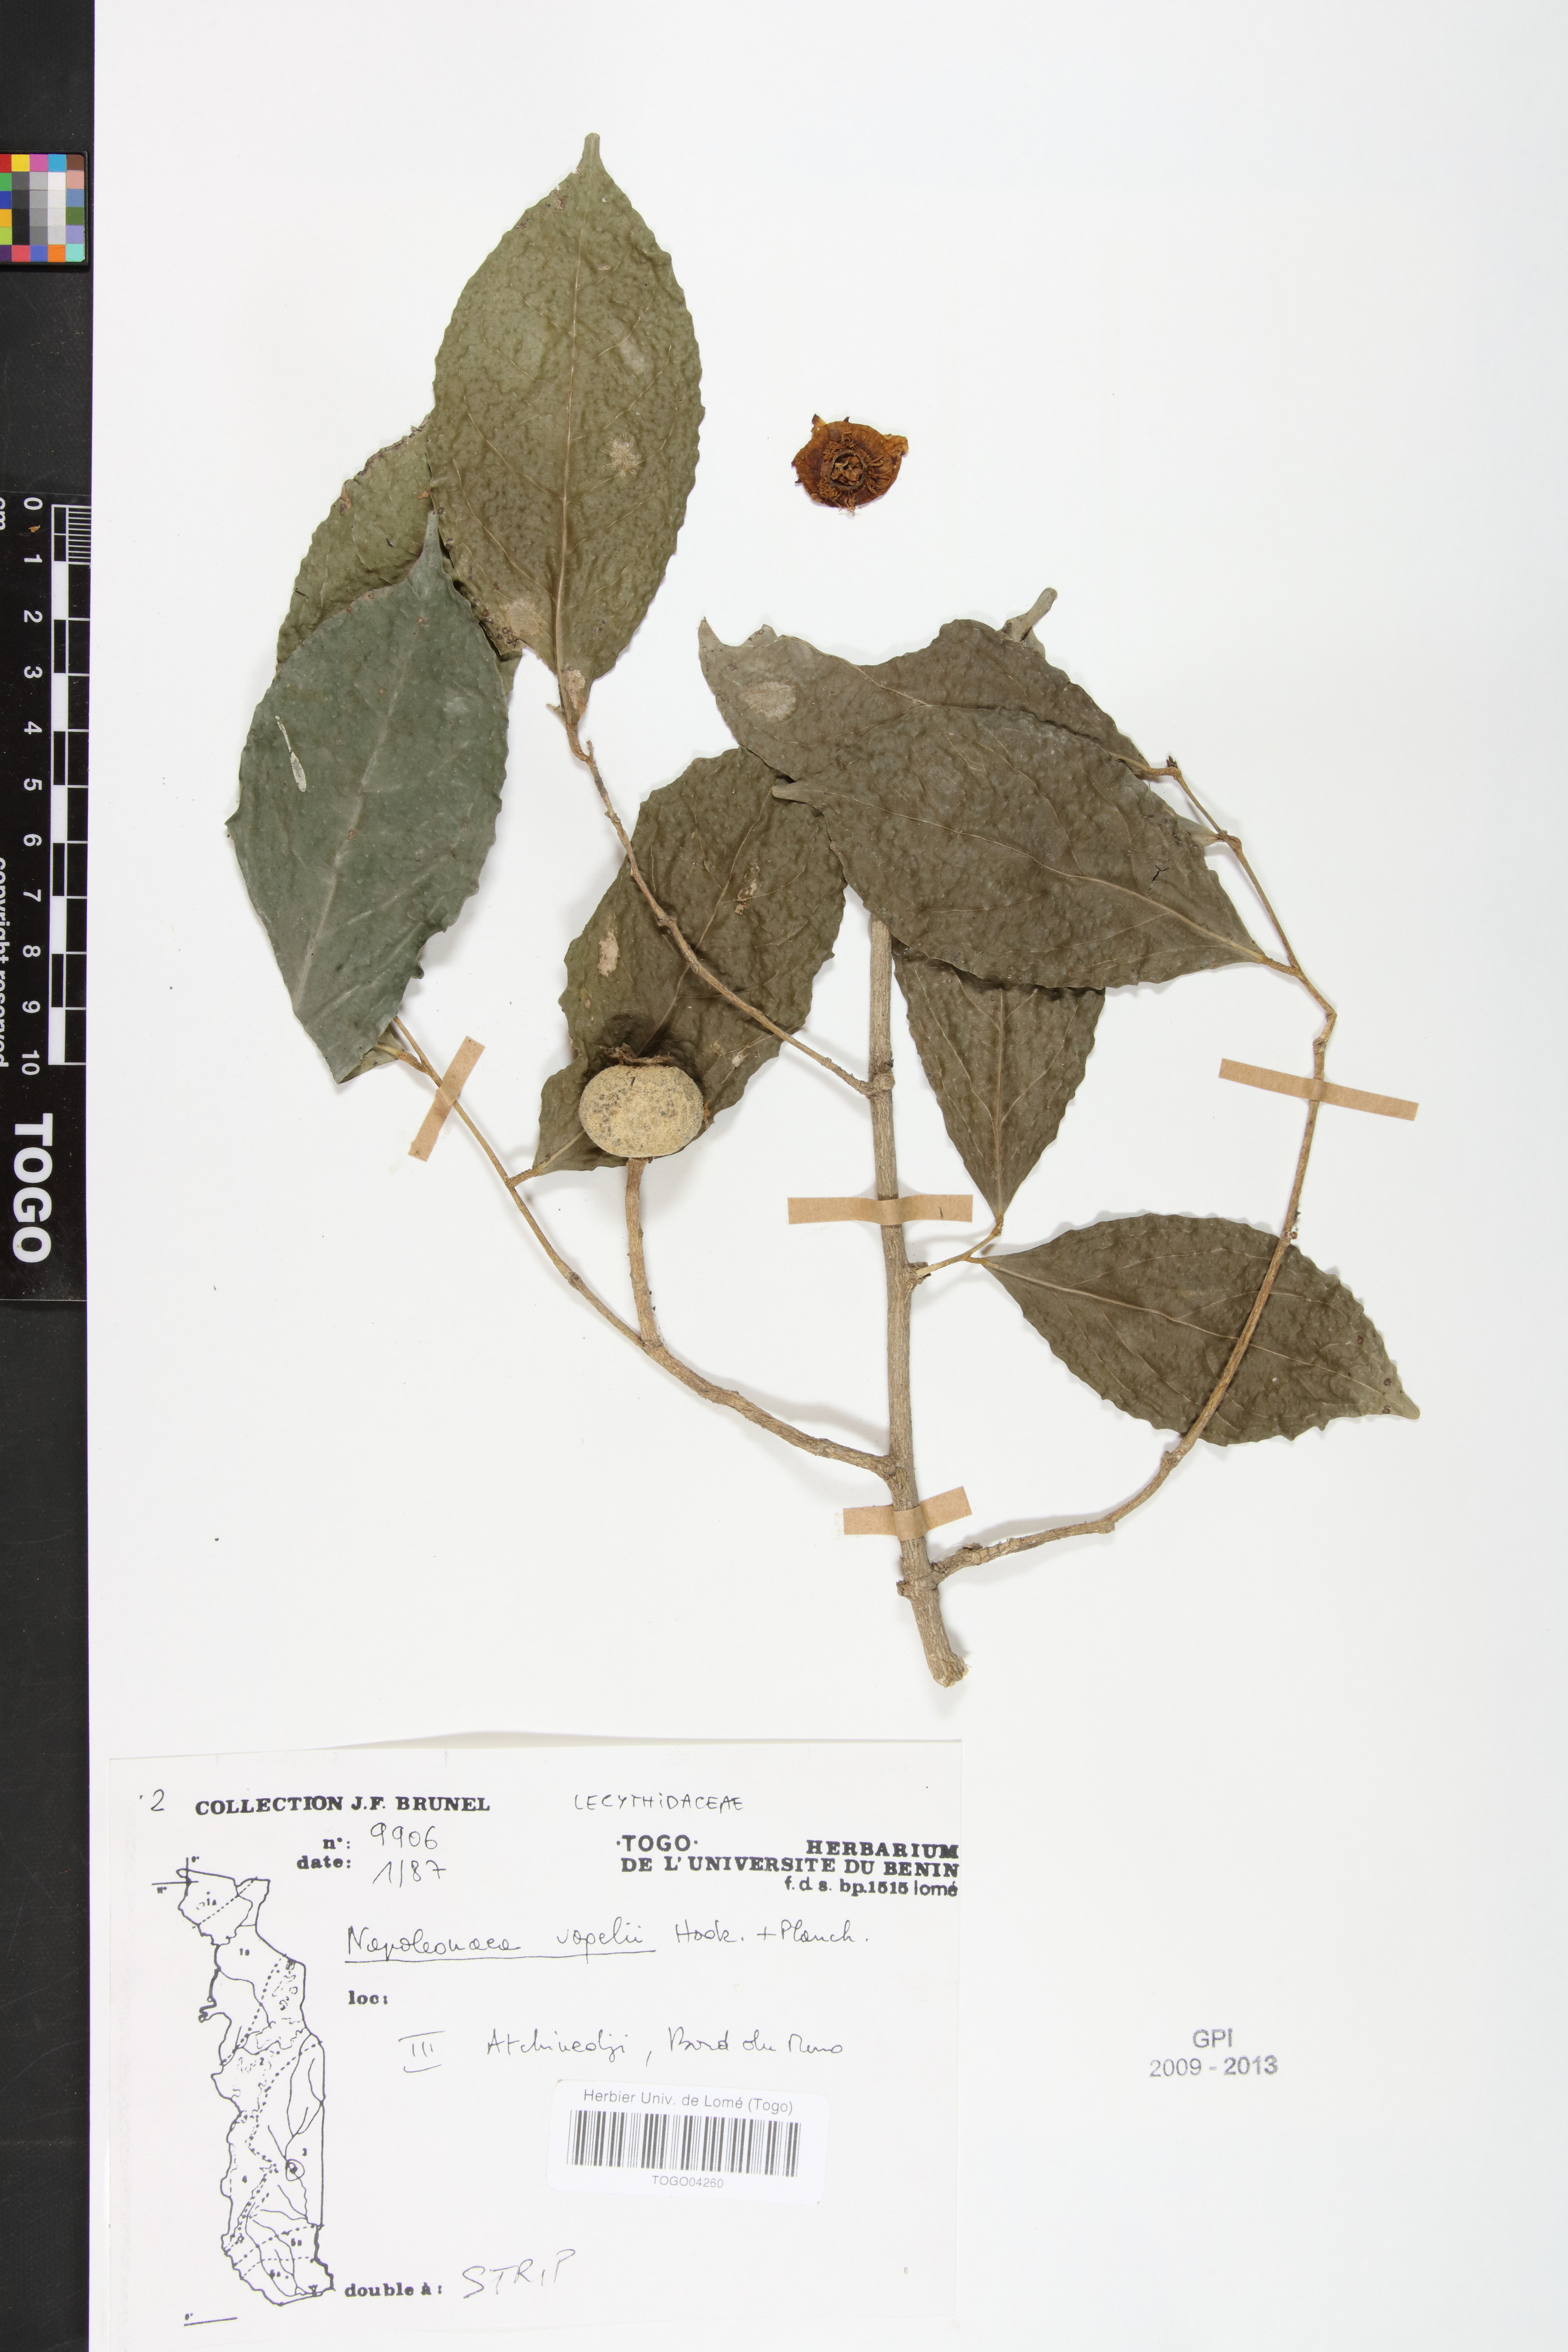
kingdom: Plantae
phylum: Tracheophyta
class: Magnoliopsida
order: Ericales
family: Lecythidaceae
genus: Napoleonaea
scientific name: Napoleonaea vogelii
